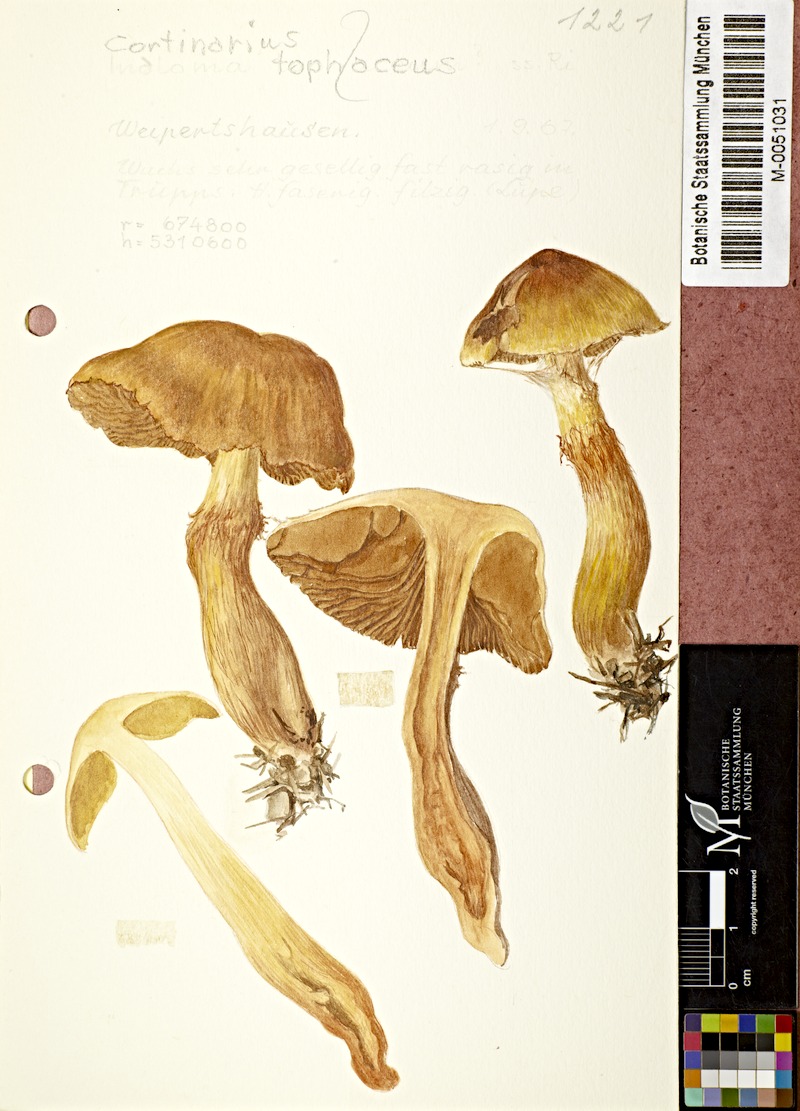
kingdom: Fungi
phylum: Basidiomycota
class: Agaricomycetes
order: Agaricales
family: Cortinariaceae
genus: Aureonarius
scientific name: Aureonarius tofaceus
